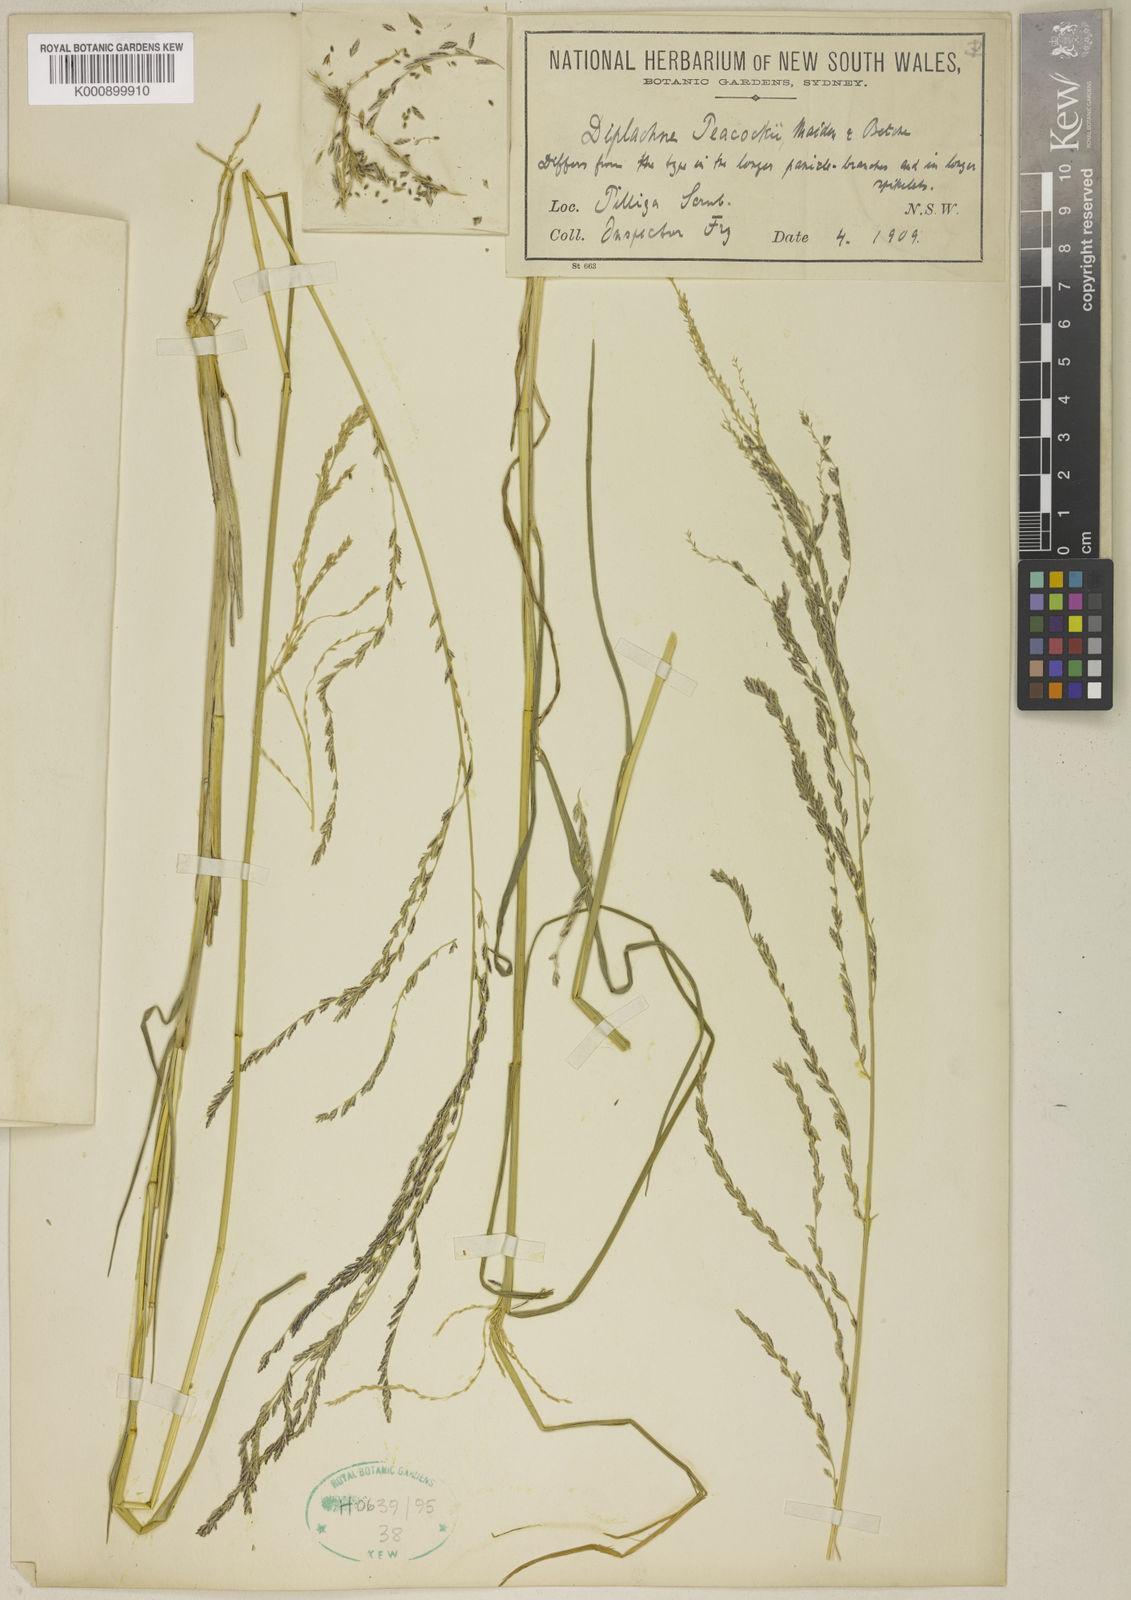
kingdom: Plantae
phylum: Tracheophyta
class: Liliopsida
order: Poales
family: Poaceae
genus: Leptochloa
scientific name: Leptochloa decipiens
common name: Australian sprangletop
